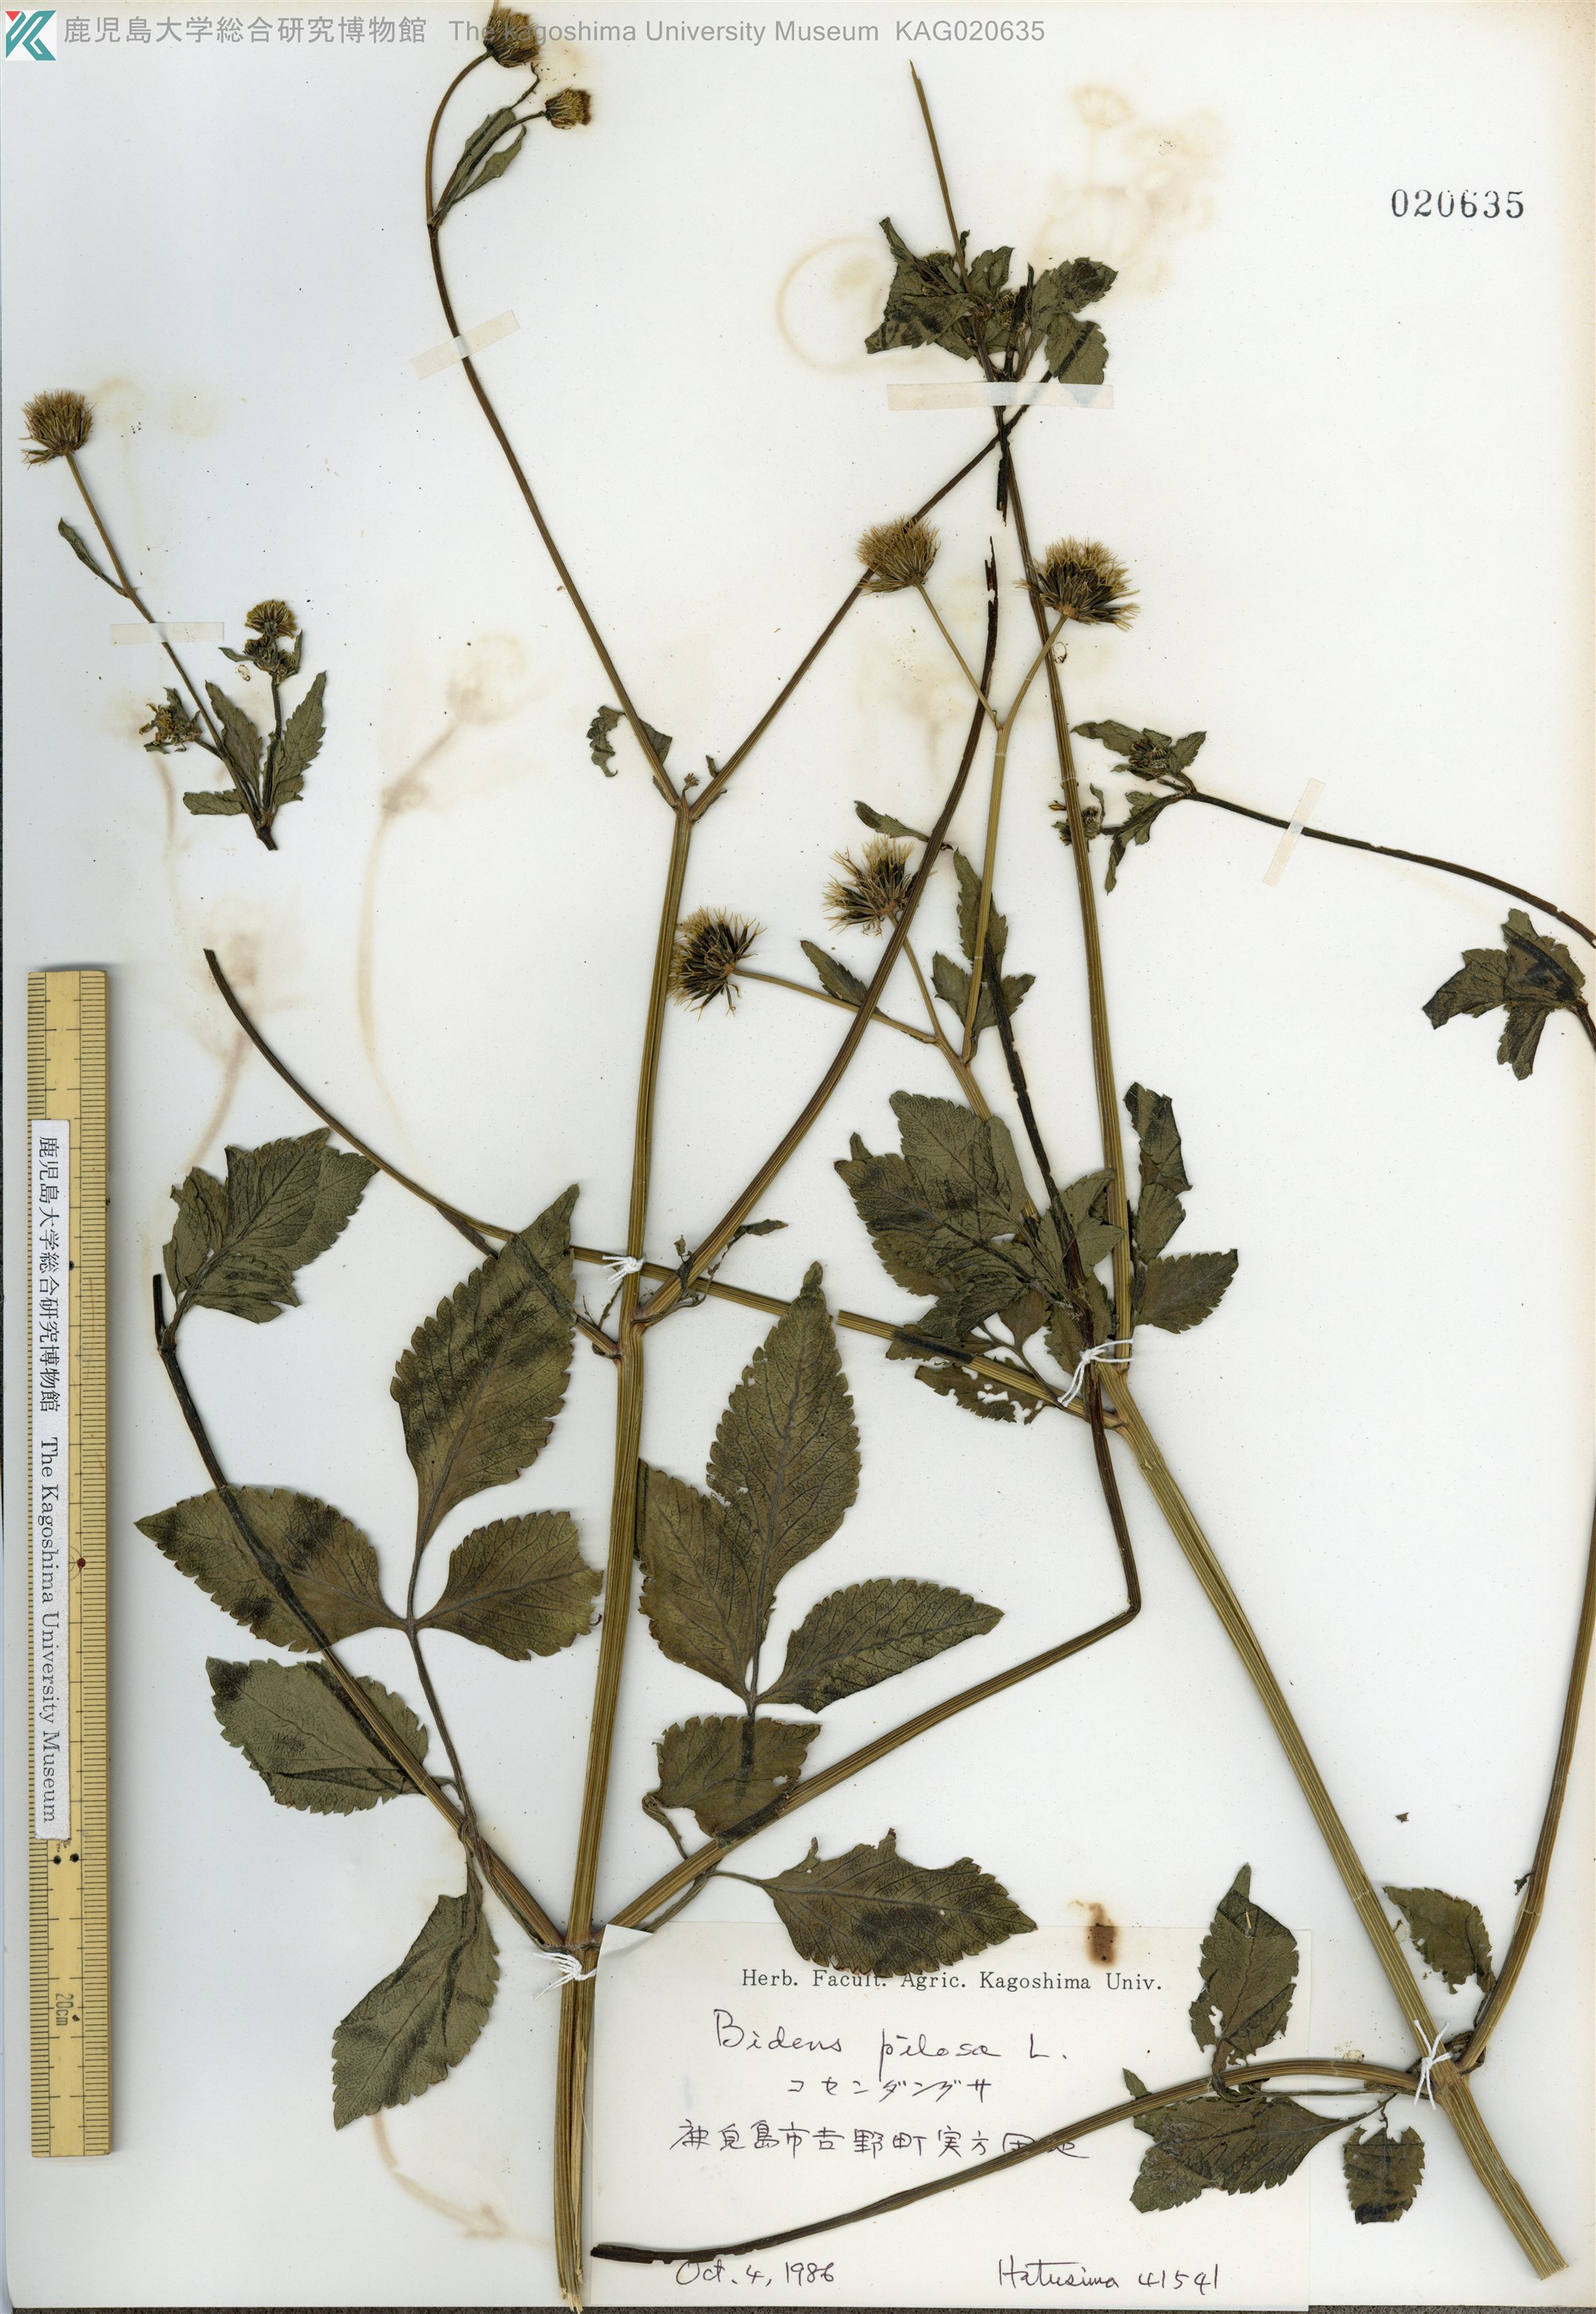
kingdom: Plantae
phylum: Tracheophyta
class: Magnoliopsida
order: Asterales
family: Asteraceae
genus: Bidens
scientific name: Bidens pilosa
